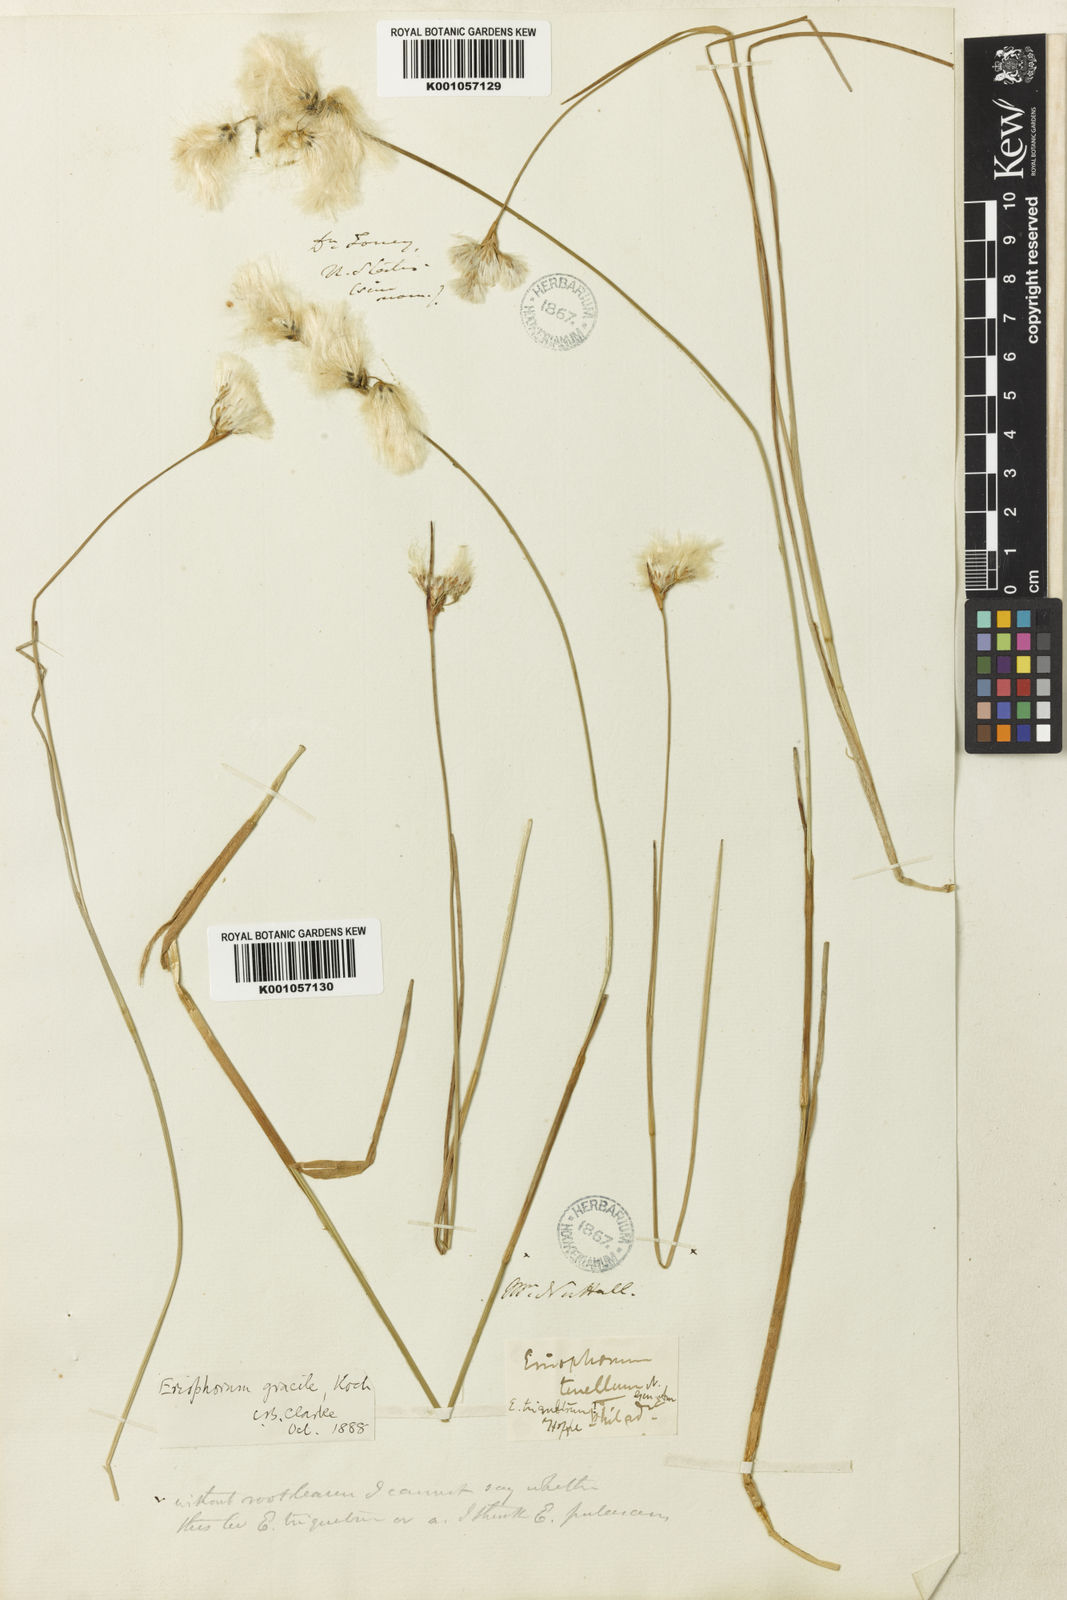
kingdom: Plantae
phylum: Tracheophyta
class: Liliopsida
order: Poales
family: Cyperaceae
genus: Eriophorum
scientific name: Eriophorum tenellum
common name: Few-nerved cottongrass
